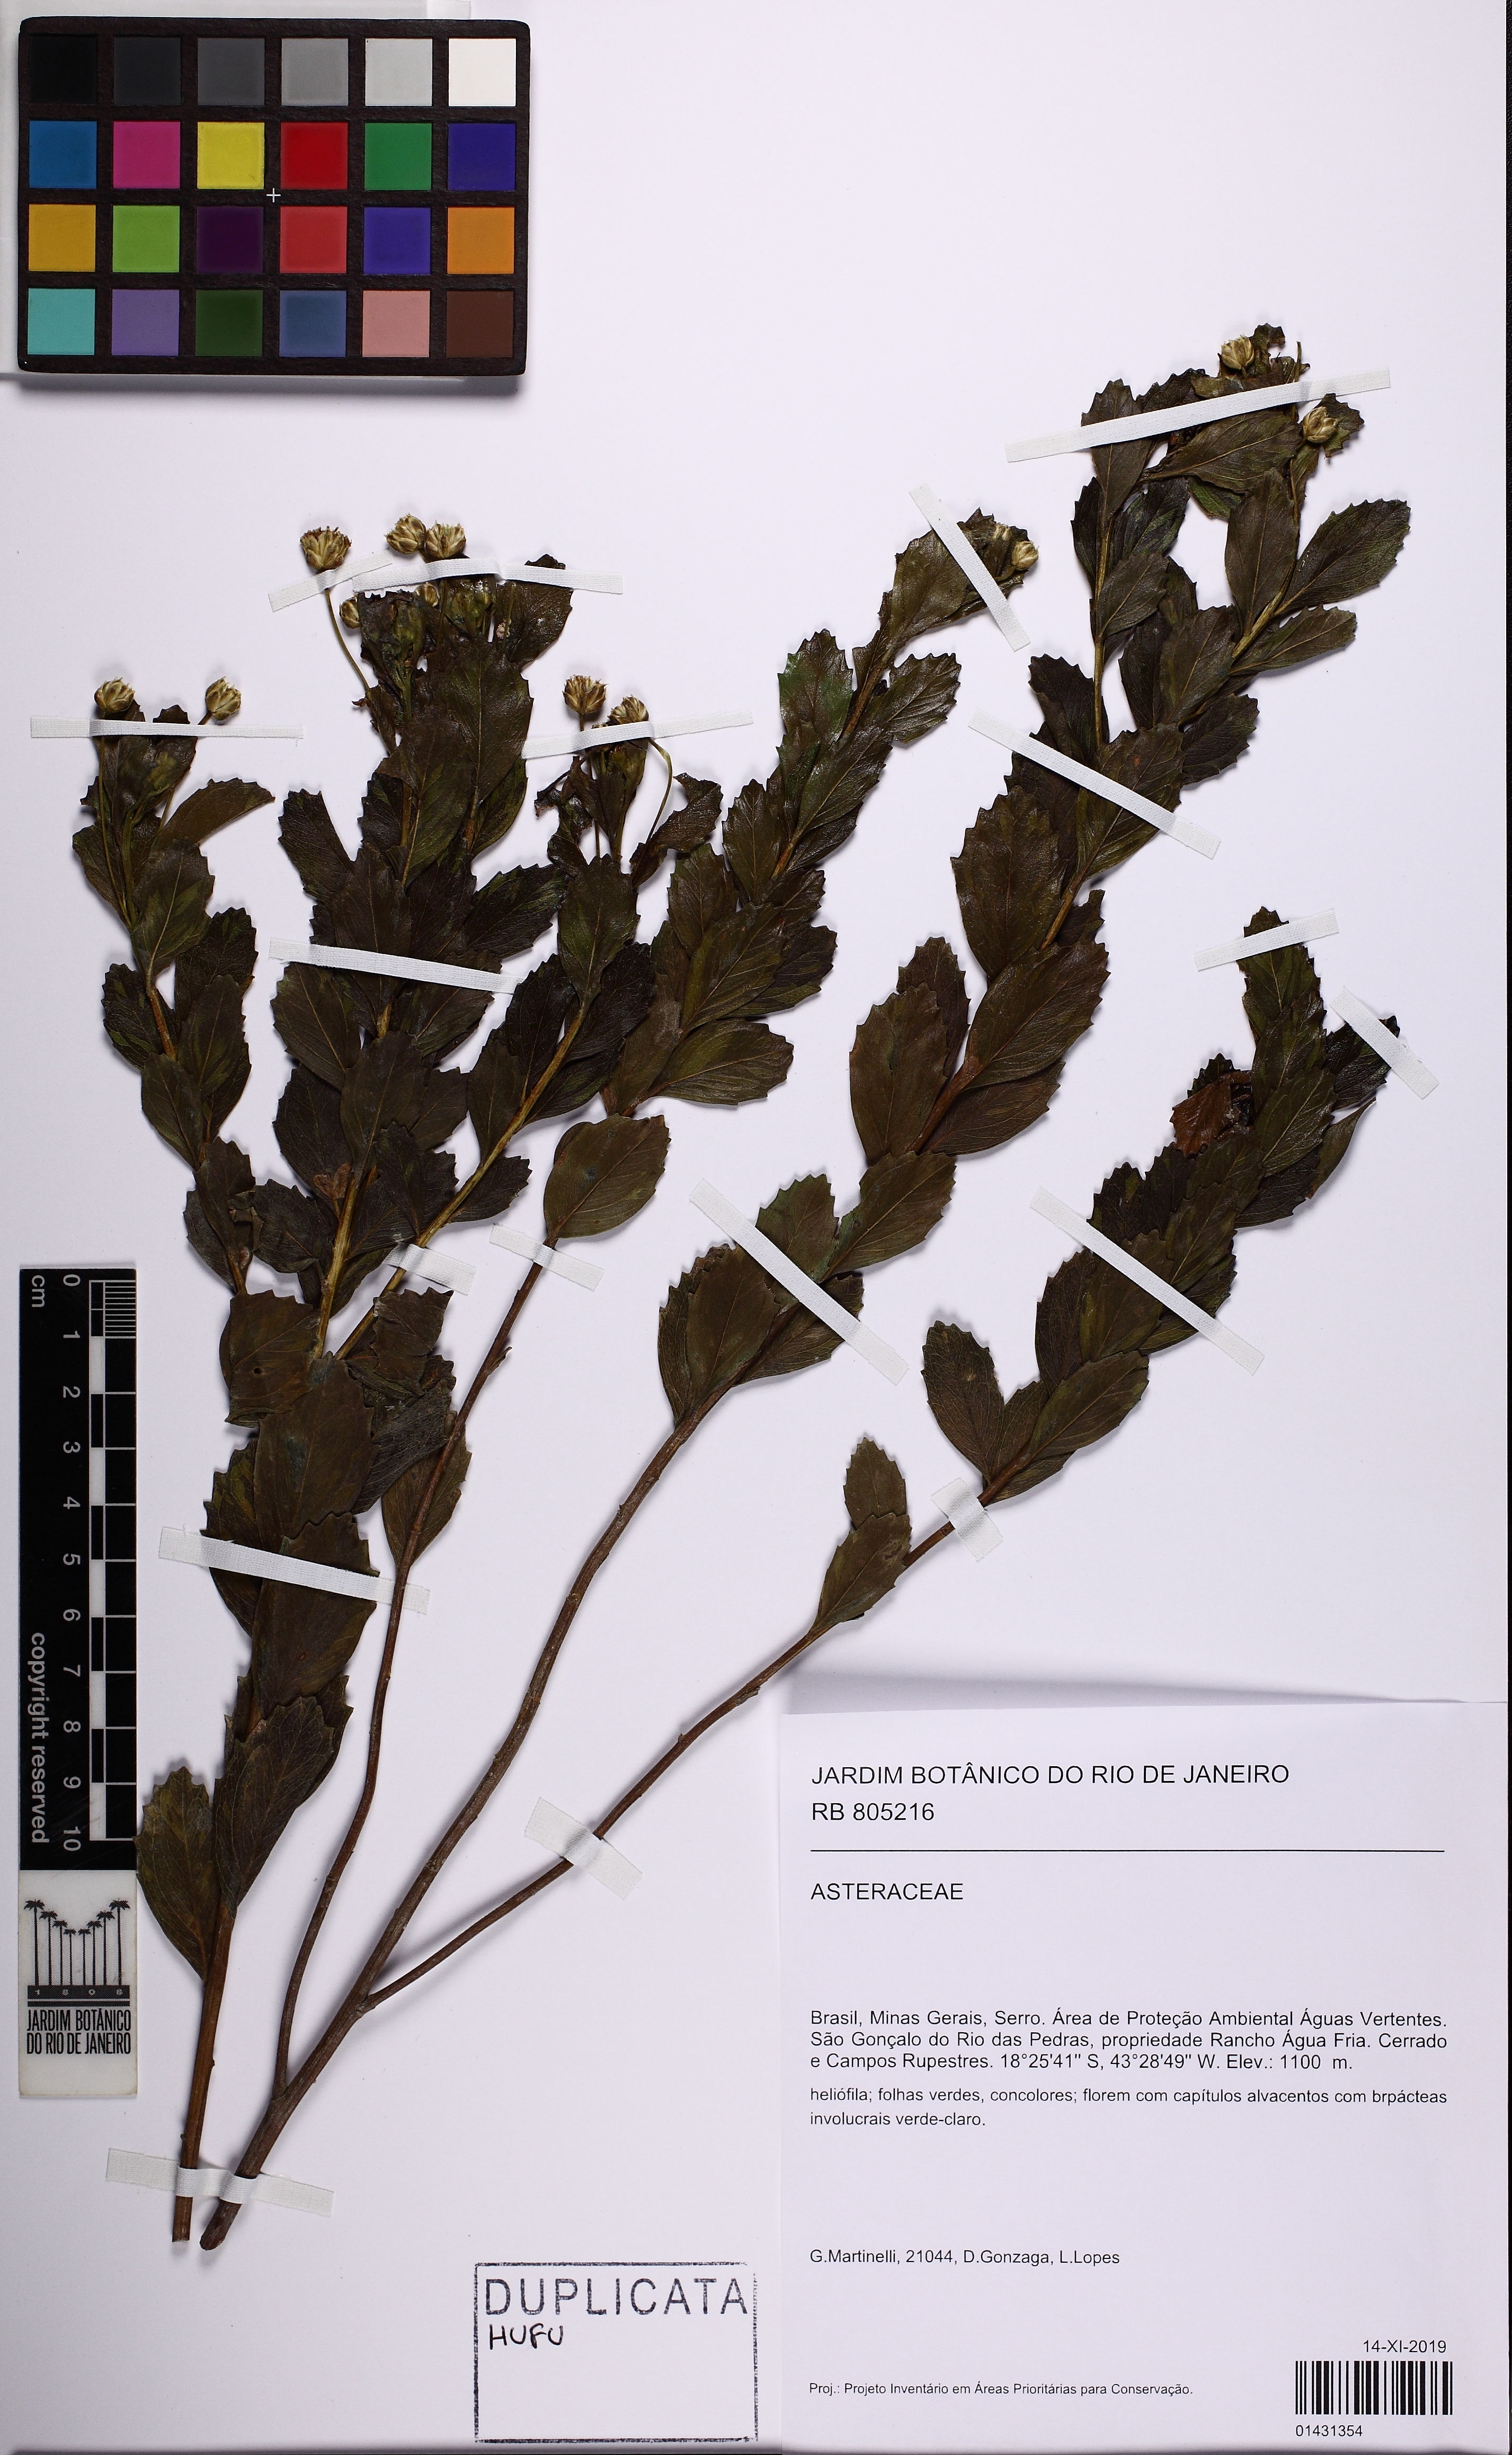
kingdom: Plantae
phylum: Tracheophyta
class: Magnoliopsida
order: Asterales
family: Asteraceae
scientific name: Asteraceae
